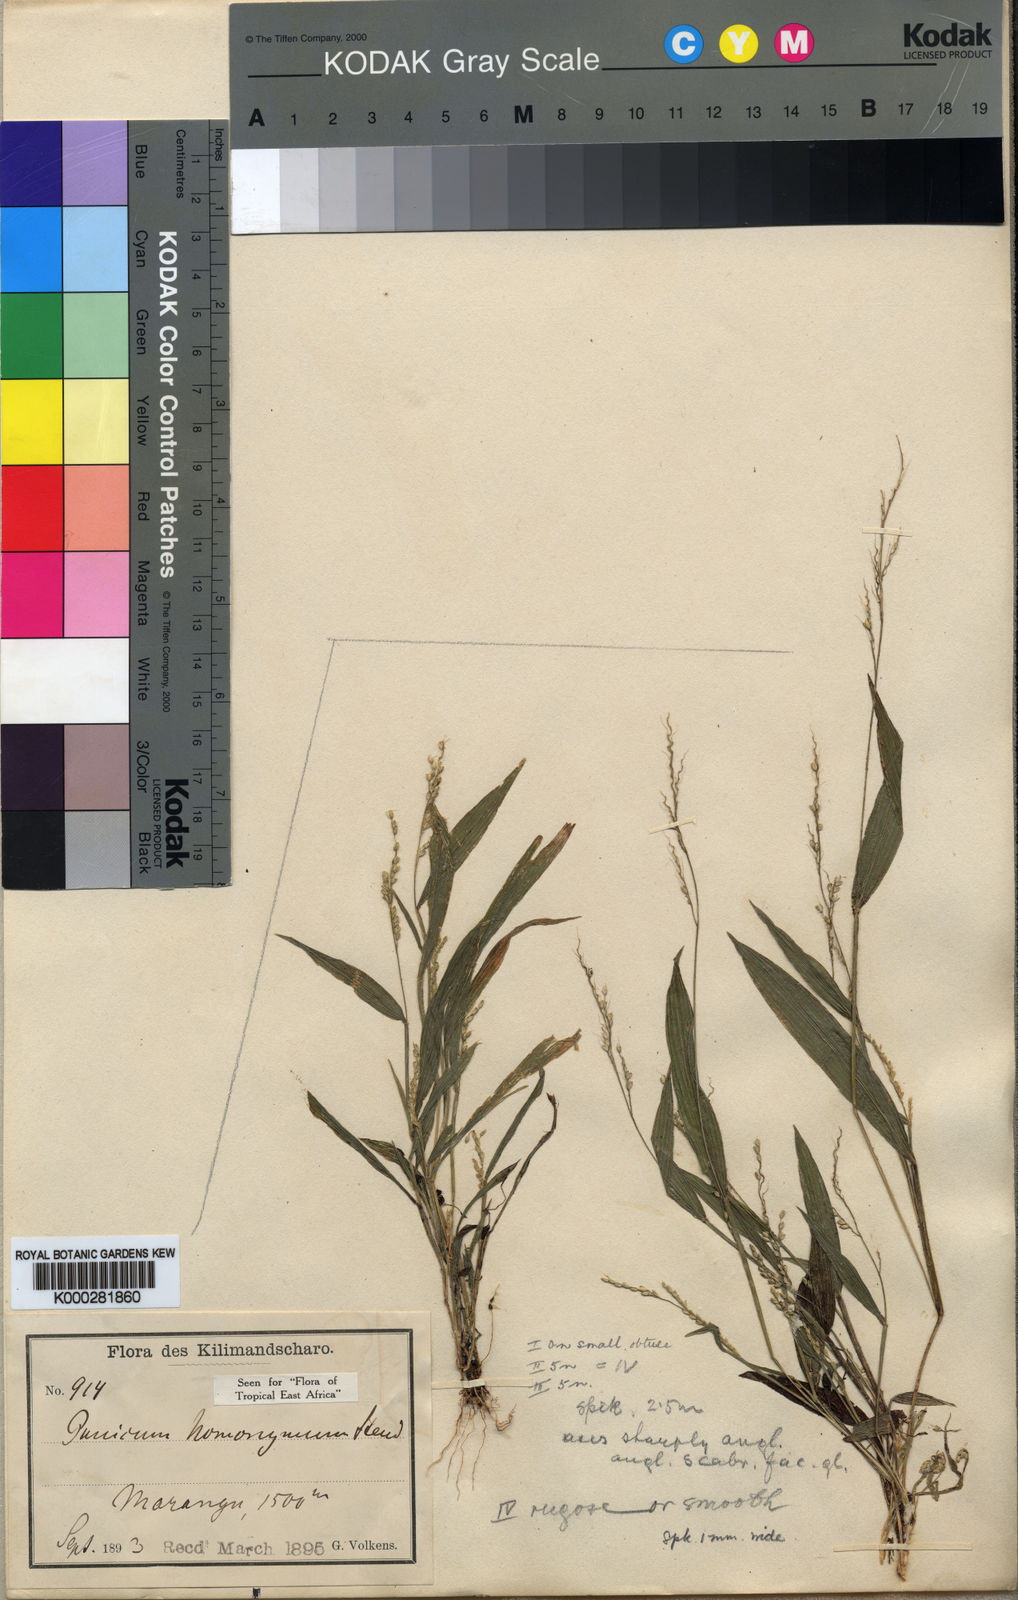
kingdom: Plantae
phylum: Tracheophyta
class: Liliopsida
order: Poales
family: Poaceae
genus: Setaria
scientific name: Setaria homonyma
